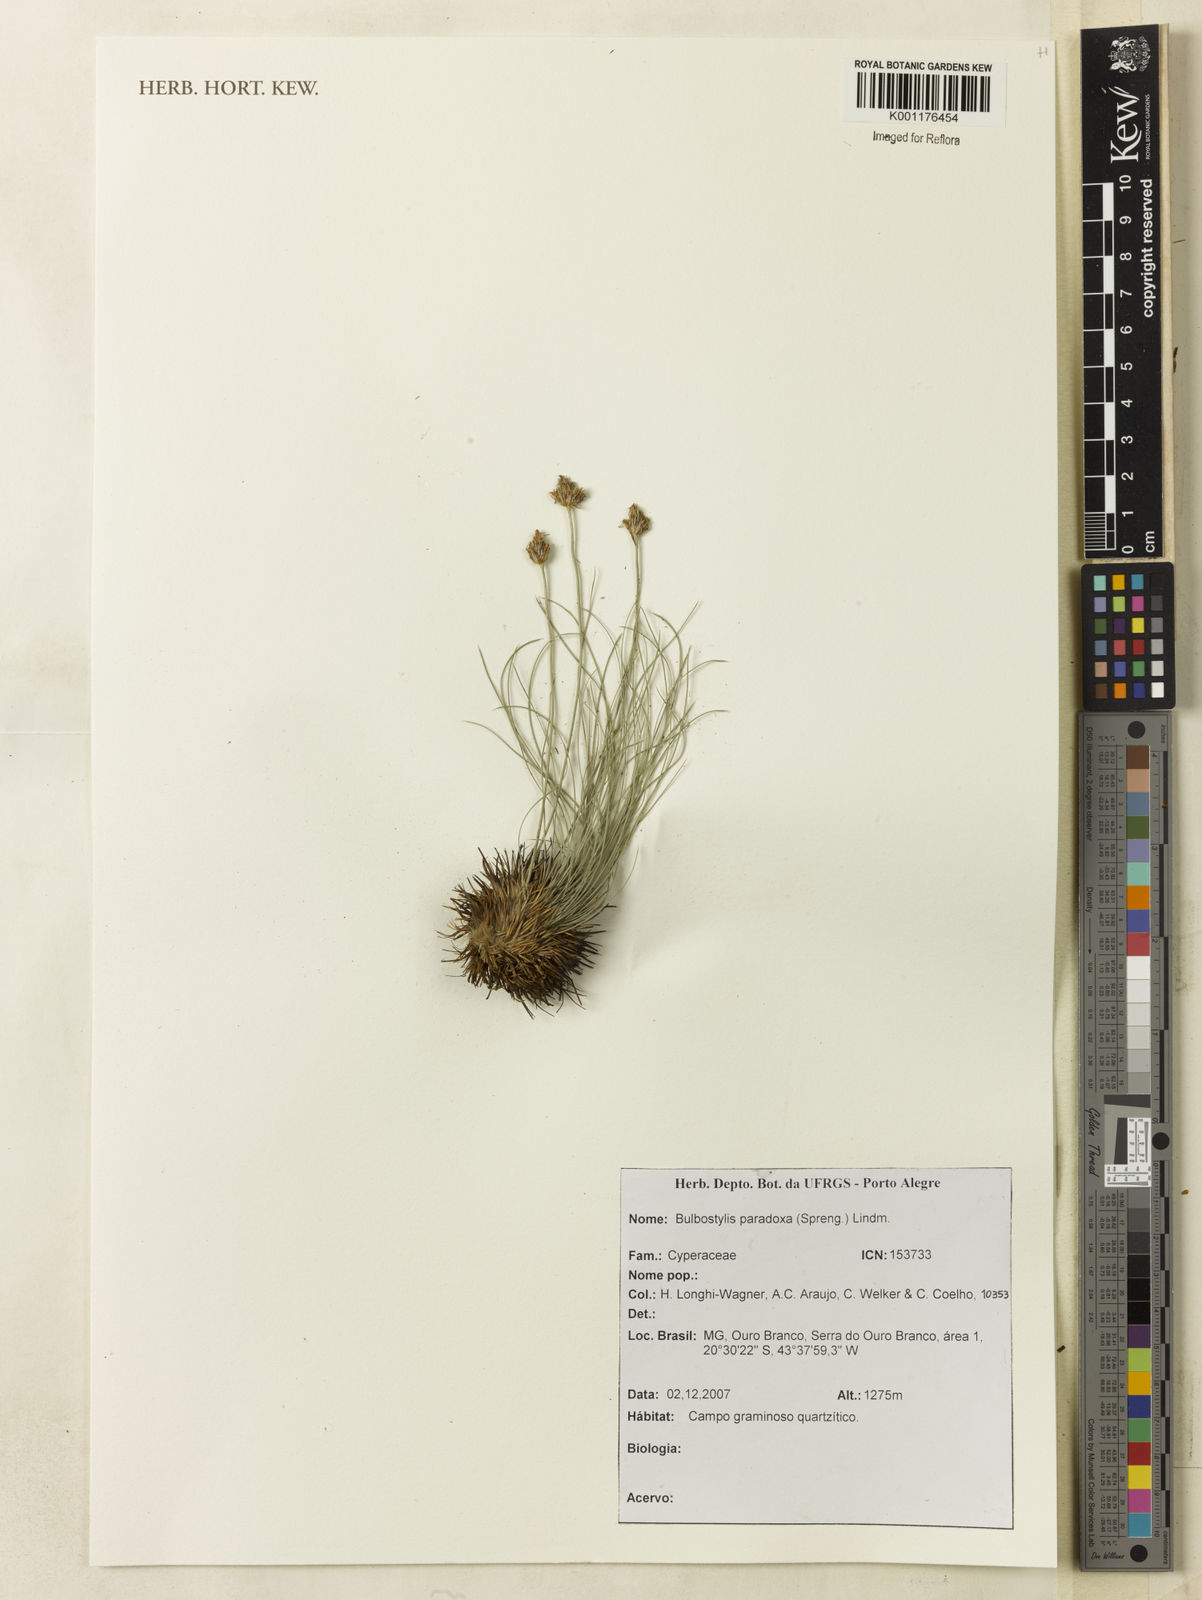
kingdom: Plantae
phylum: Tracheophyta
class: Liliopsida
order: Poales
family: Cyperaceae
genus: Bulbostylis
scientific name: Bulbostylis paradoxa
